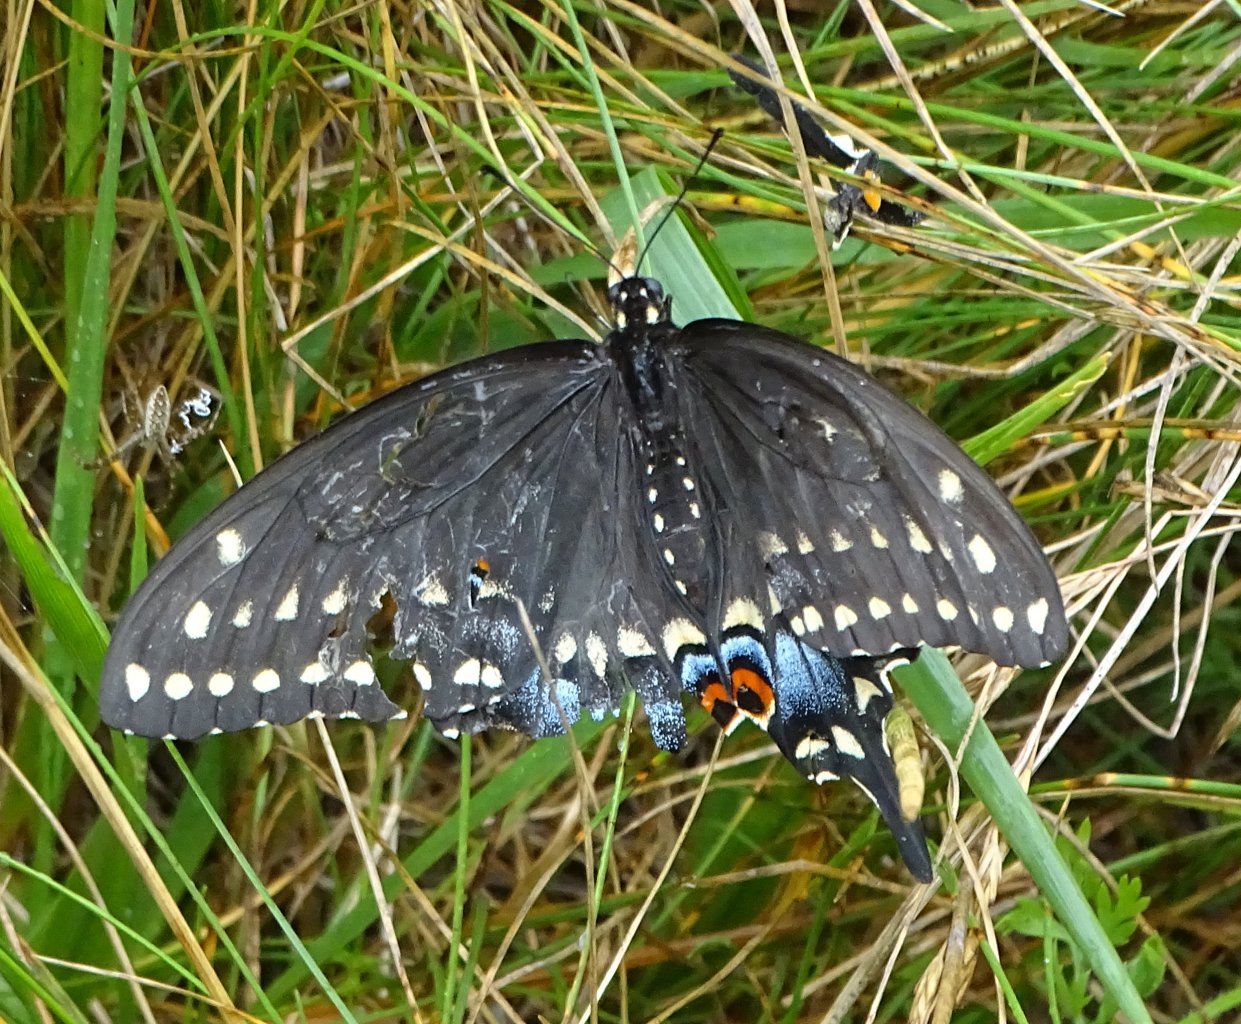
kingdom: Animalia
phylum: Arthropoda
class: Insecta
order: Lepidoptera
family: Papilionidae
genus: Papilio
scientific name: Papilio polyxenes
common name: Black Swallowtail
